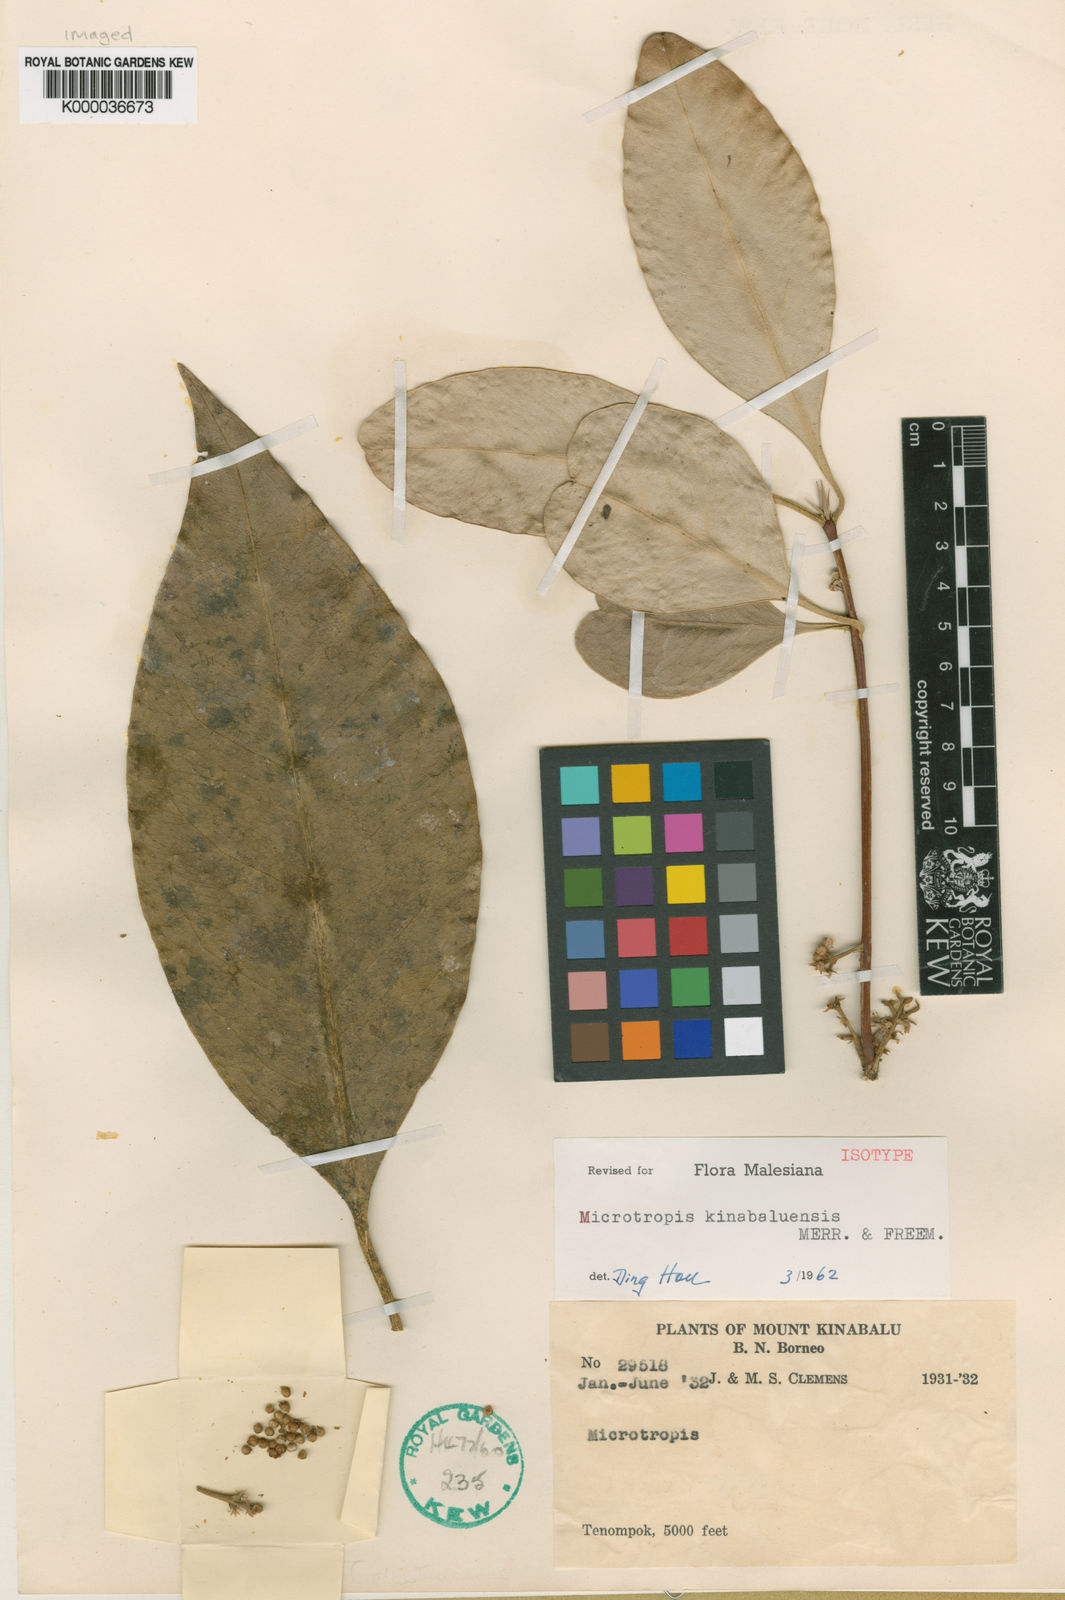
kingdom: Plantae
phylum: Tracheophyta
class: Magnoliopsida
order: Celastrales
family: Celastraceae
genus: Microtropis
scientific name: Microtropis kinabaluensis
